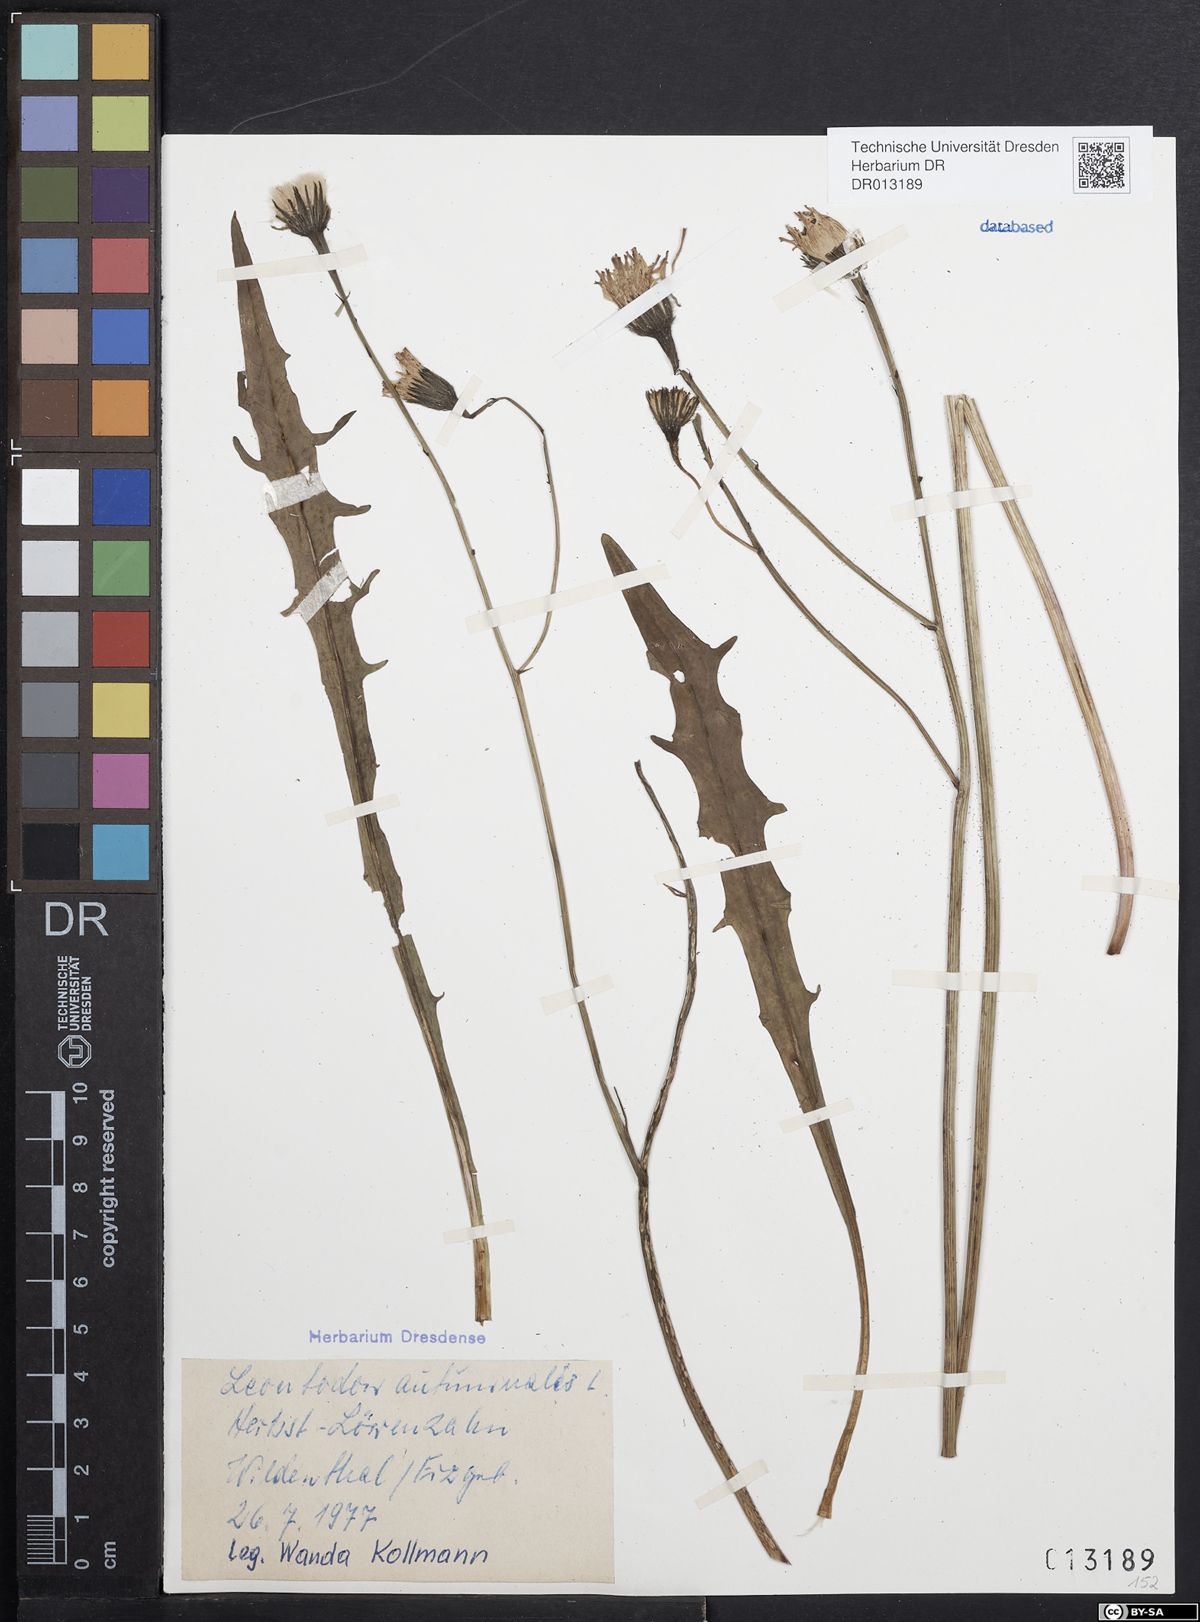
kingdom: Plantae
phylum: Tracheophyta
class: Magnoliopsida
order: Asterales
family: Asteraceae
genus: Scorzoneroides
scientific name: Scorzoneroides autumnalis
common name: Autumn hawkbit
